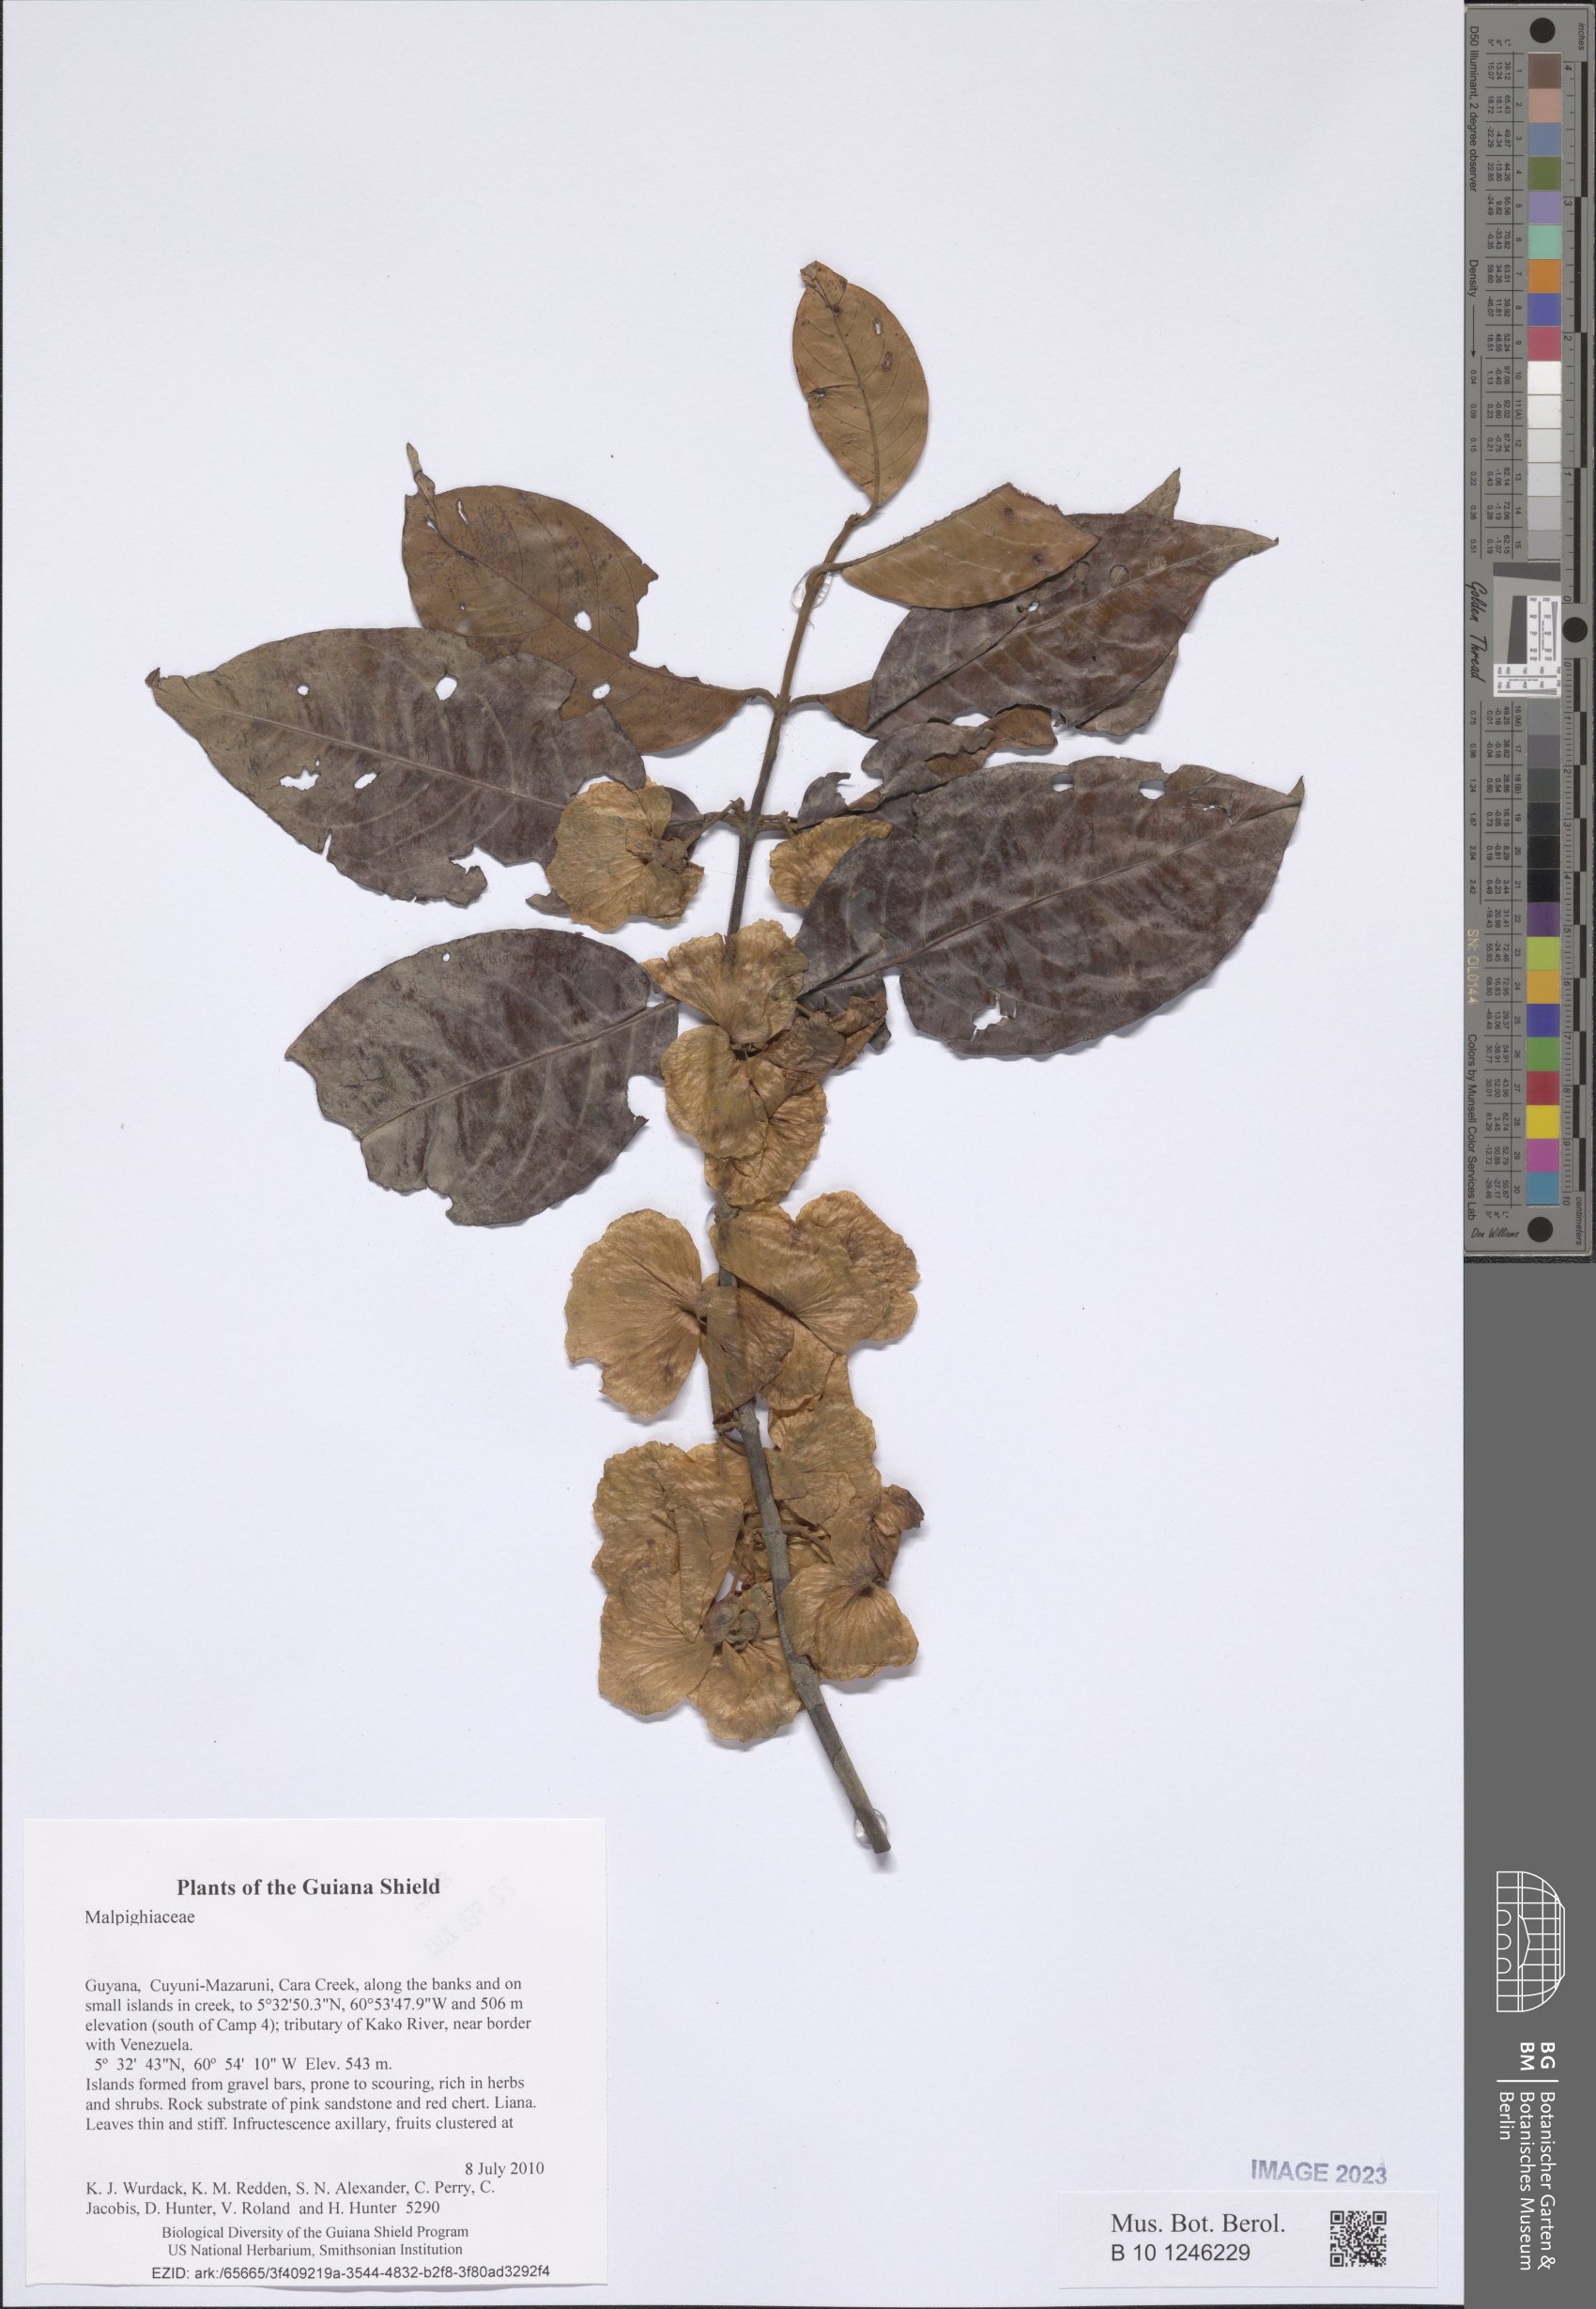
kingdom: Plantae
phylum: Tracheophyta
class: Magnoliopsida
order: Malpighiales
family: Malpighiaceae
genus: Mascagnia
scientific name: Mascagnia
